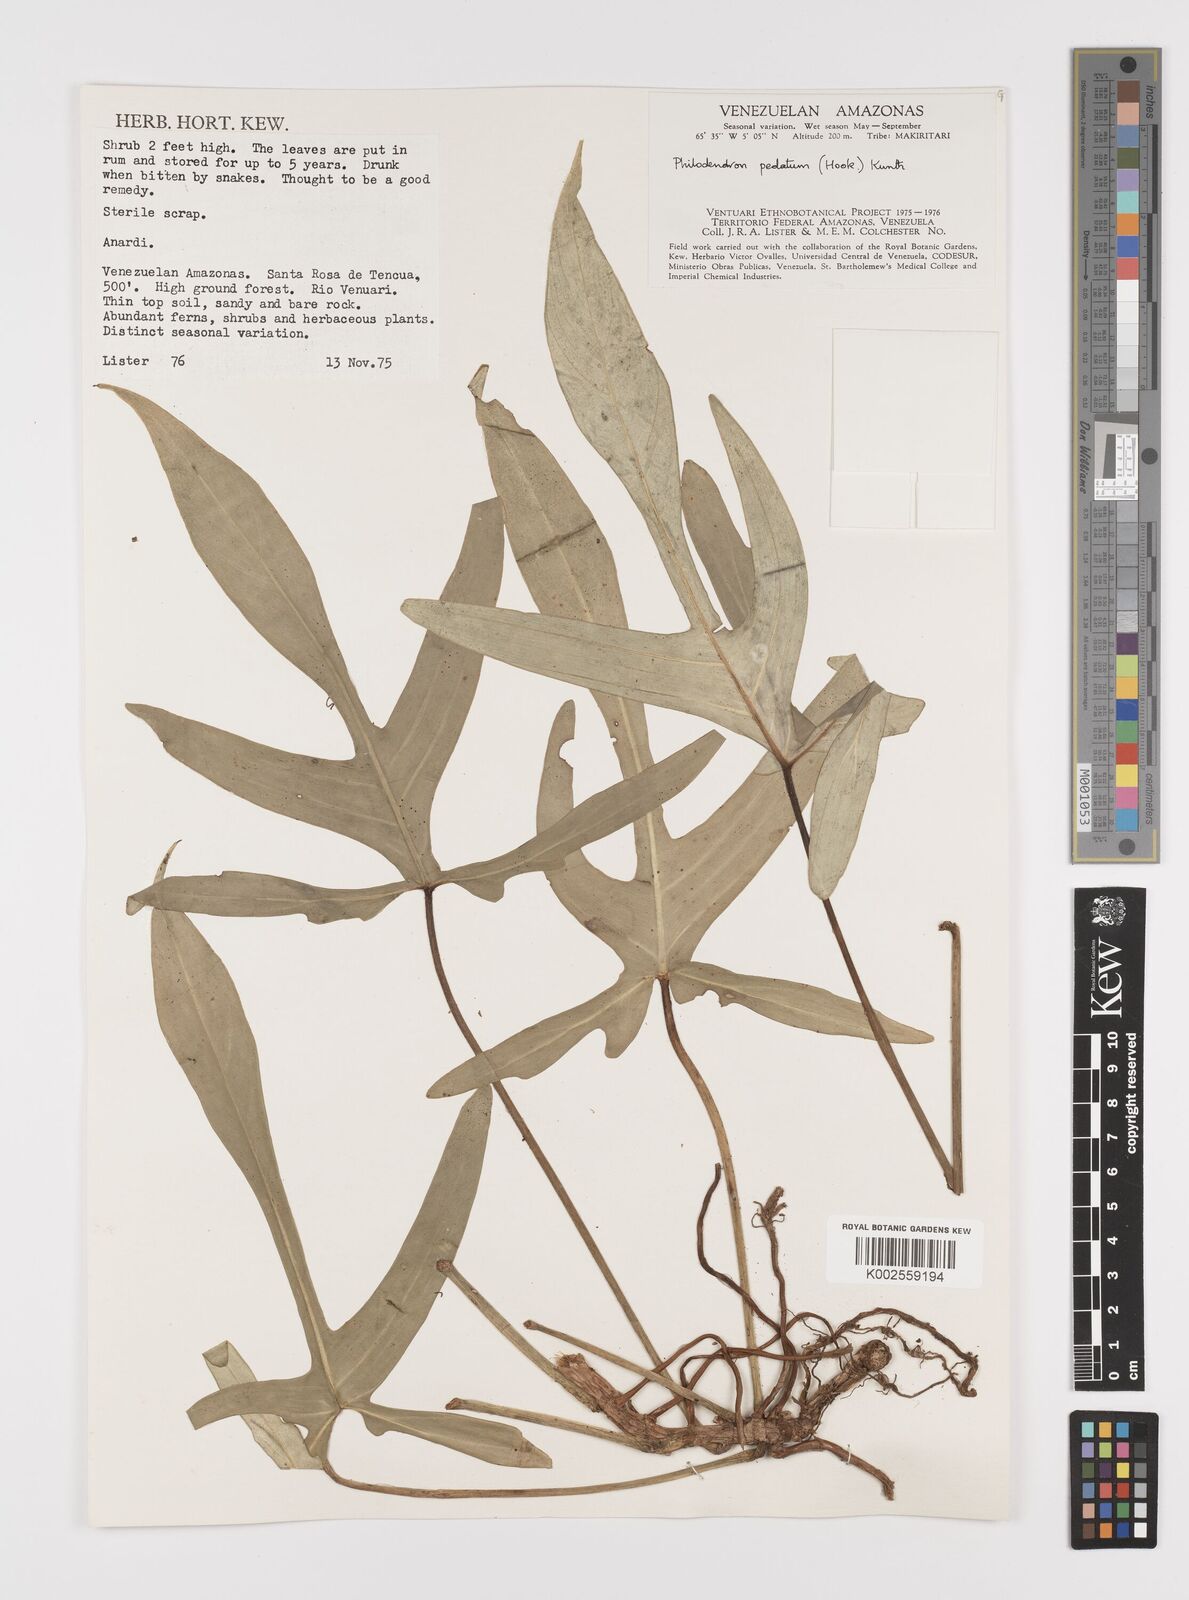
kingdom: Plantae
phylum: Tracheophyta
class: Liliopsida
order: Alismatales
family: Araceae
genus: Philodendron
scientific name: Philodendron pedatum
